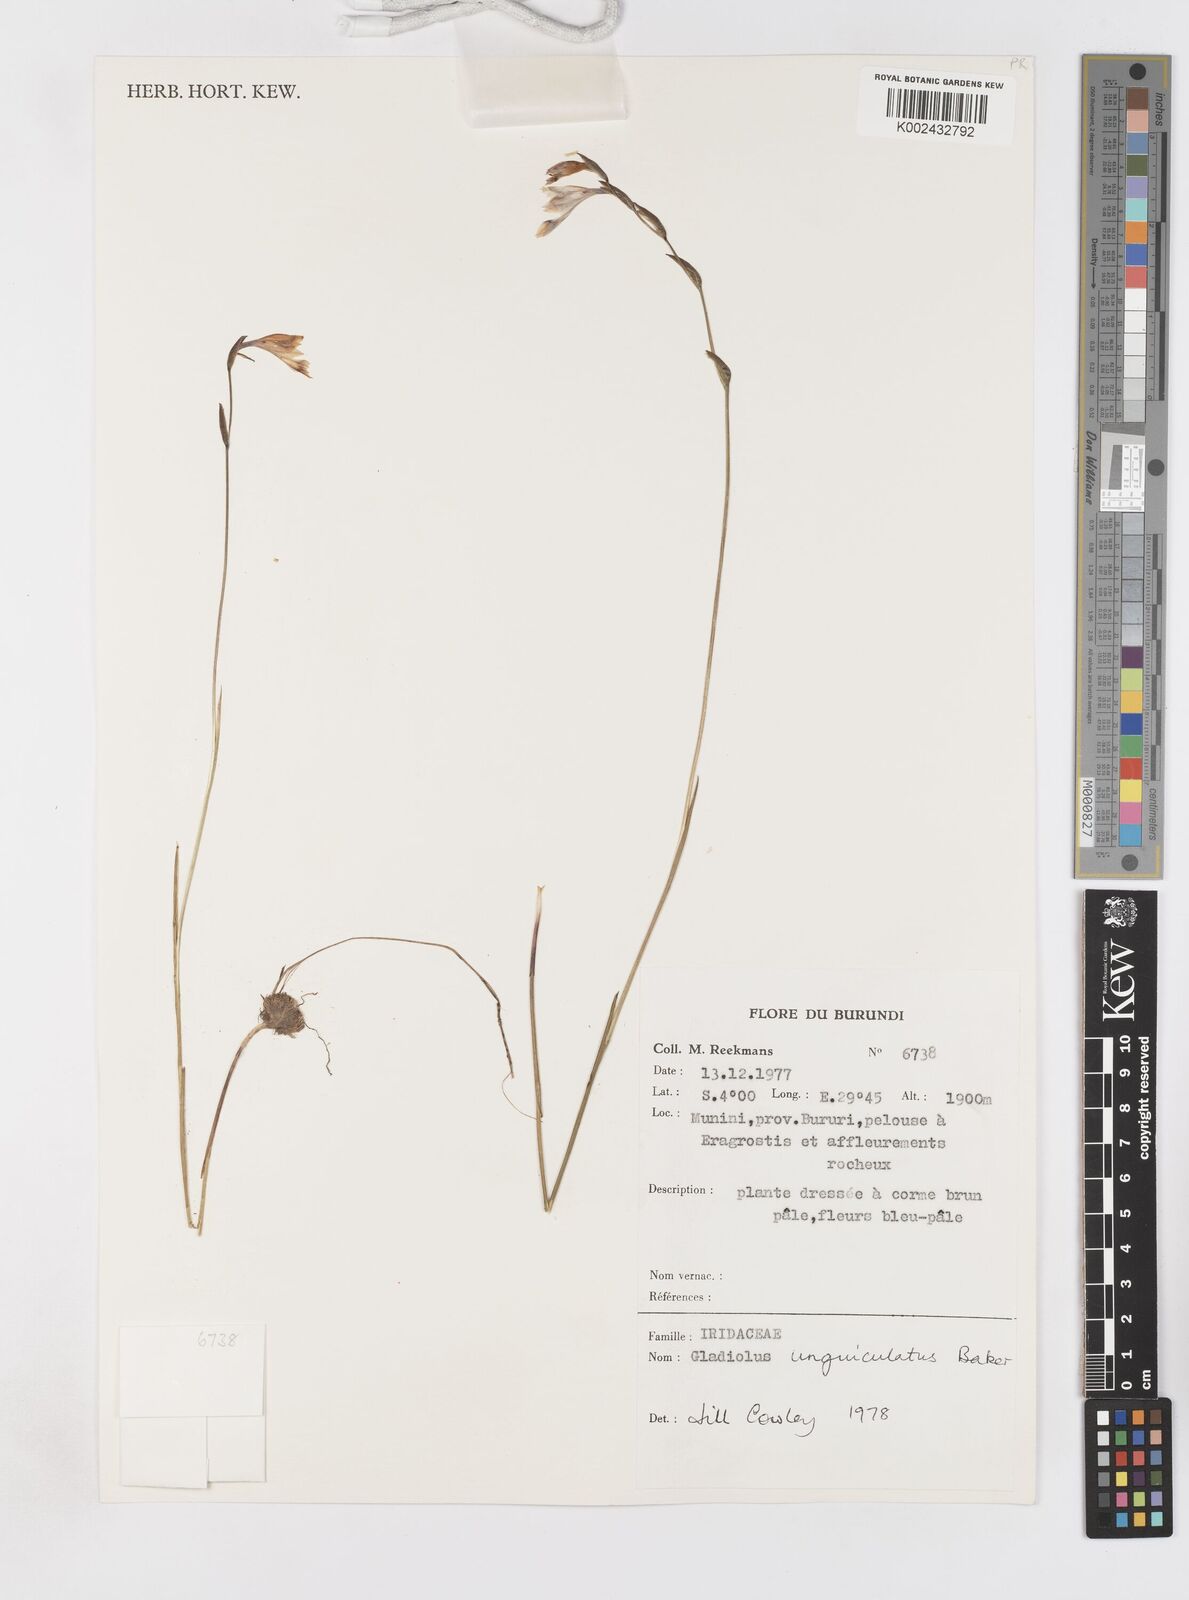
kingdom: Plantae
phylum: Tracheophyta
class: Liliopsida
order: Asparagales
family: Iridaceae
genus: Gladiolus
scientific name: Gladiolus unguiculatus
